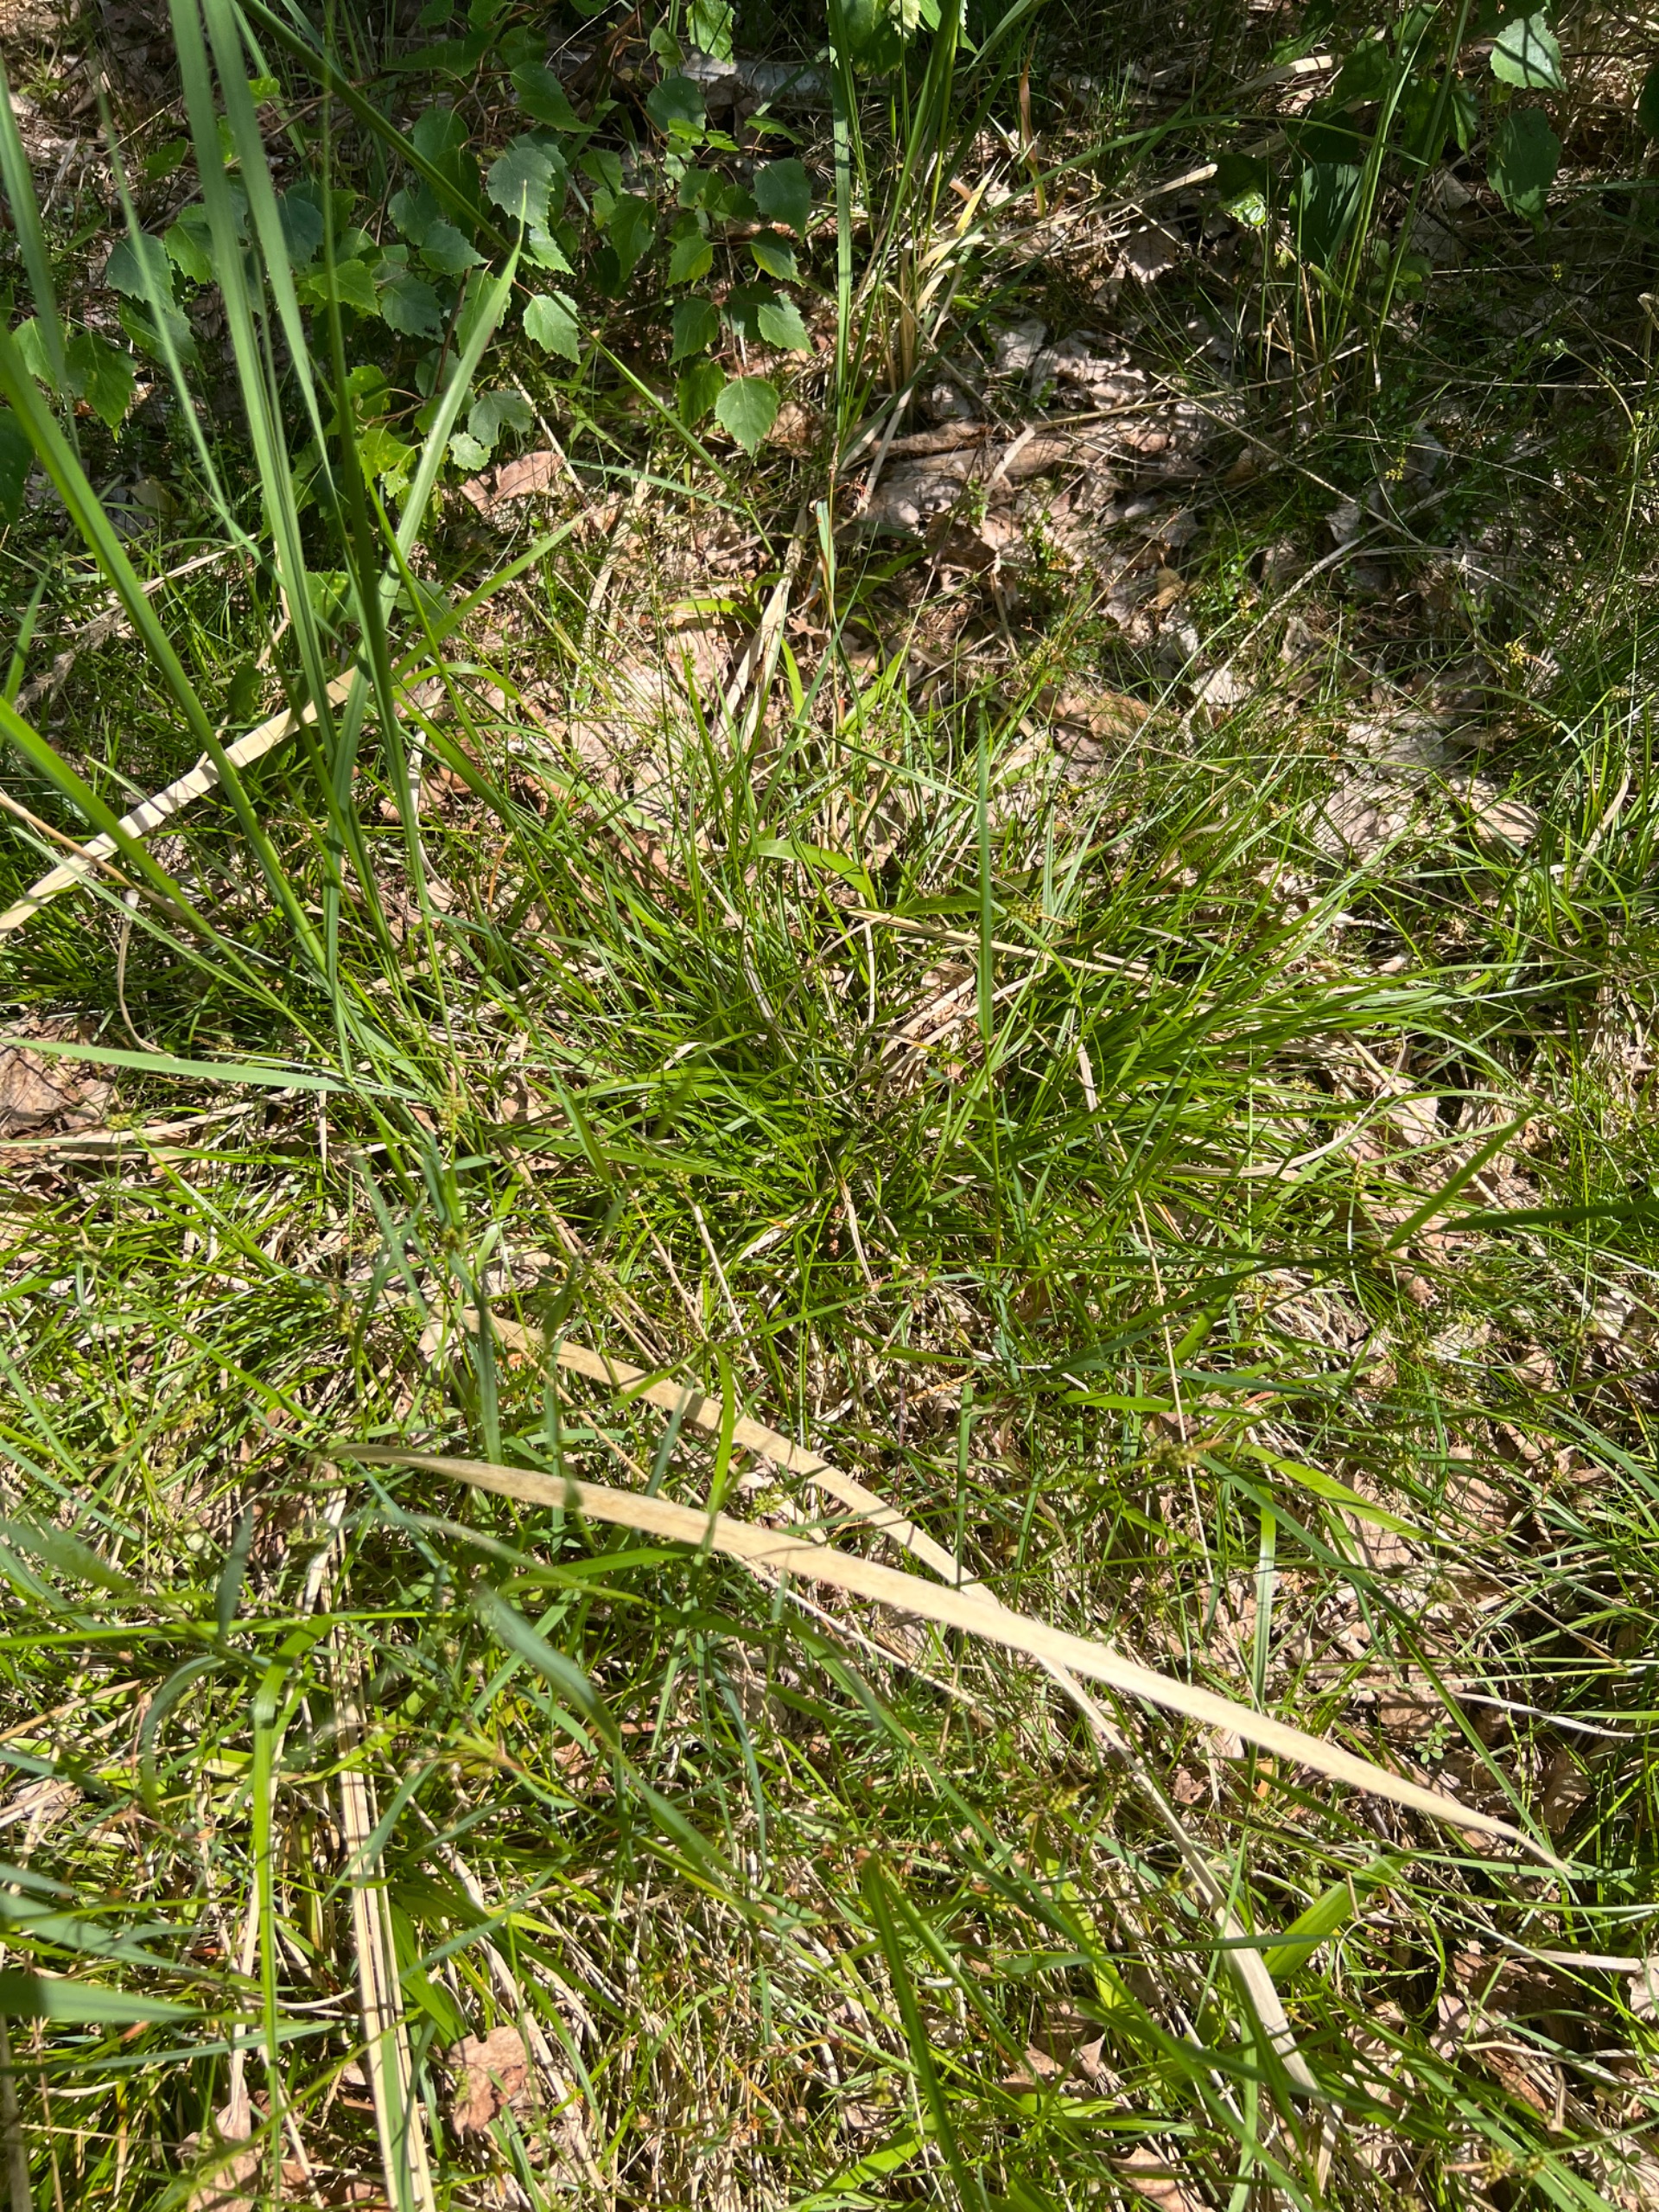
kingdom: Plantae
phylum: Tracheophyta
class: Liliopsida
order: Poales
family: Cyperaceae
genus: Carex
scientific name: Carex pilulifera
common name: Pille-star
